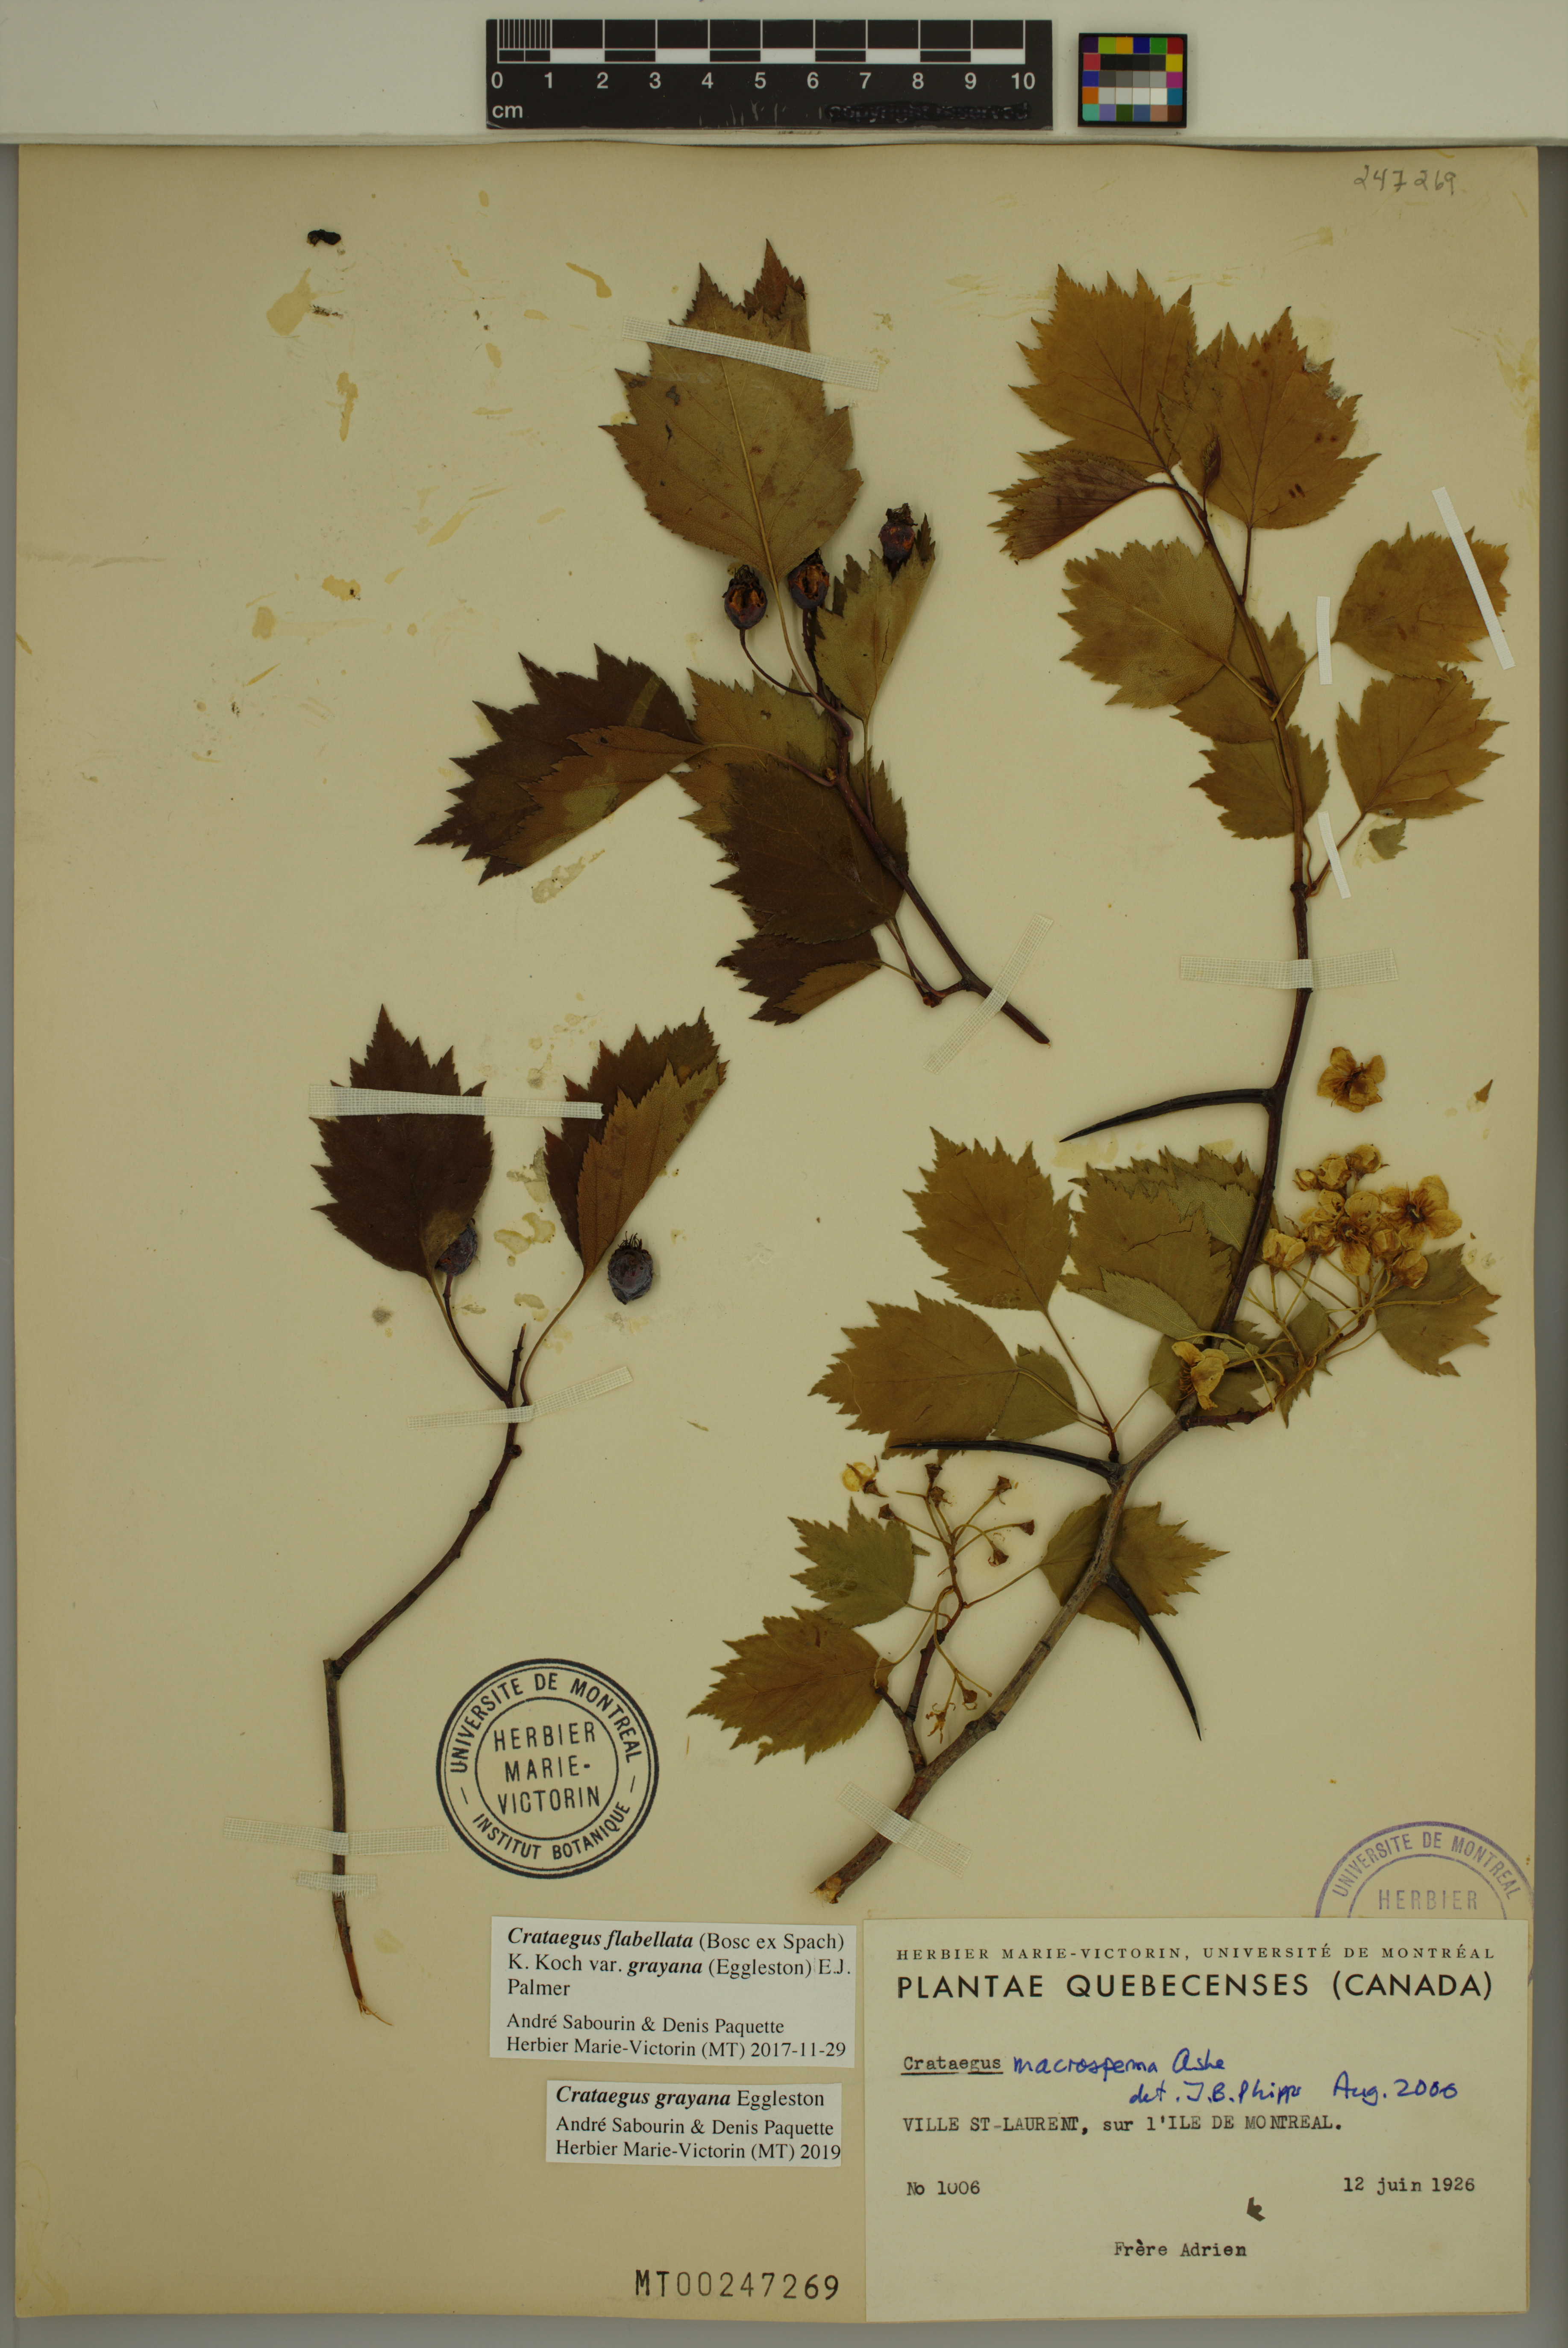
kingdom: Plantae
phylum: Tracheophyta
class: Magnoliopsida
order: Rosales
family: Rosaceae
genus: Crataegus
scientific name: Crataegus schuettei
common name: Schuette's hawthorn
